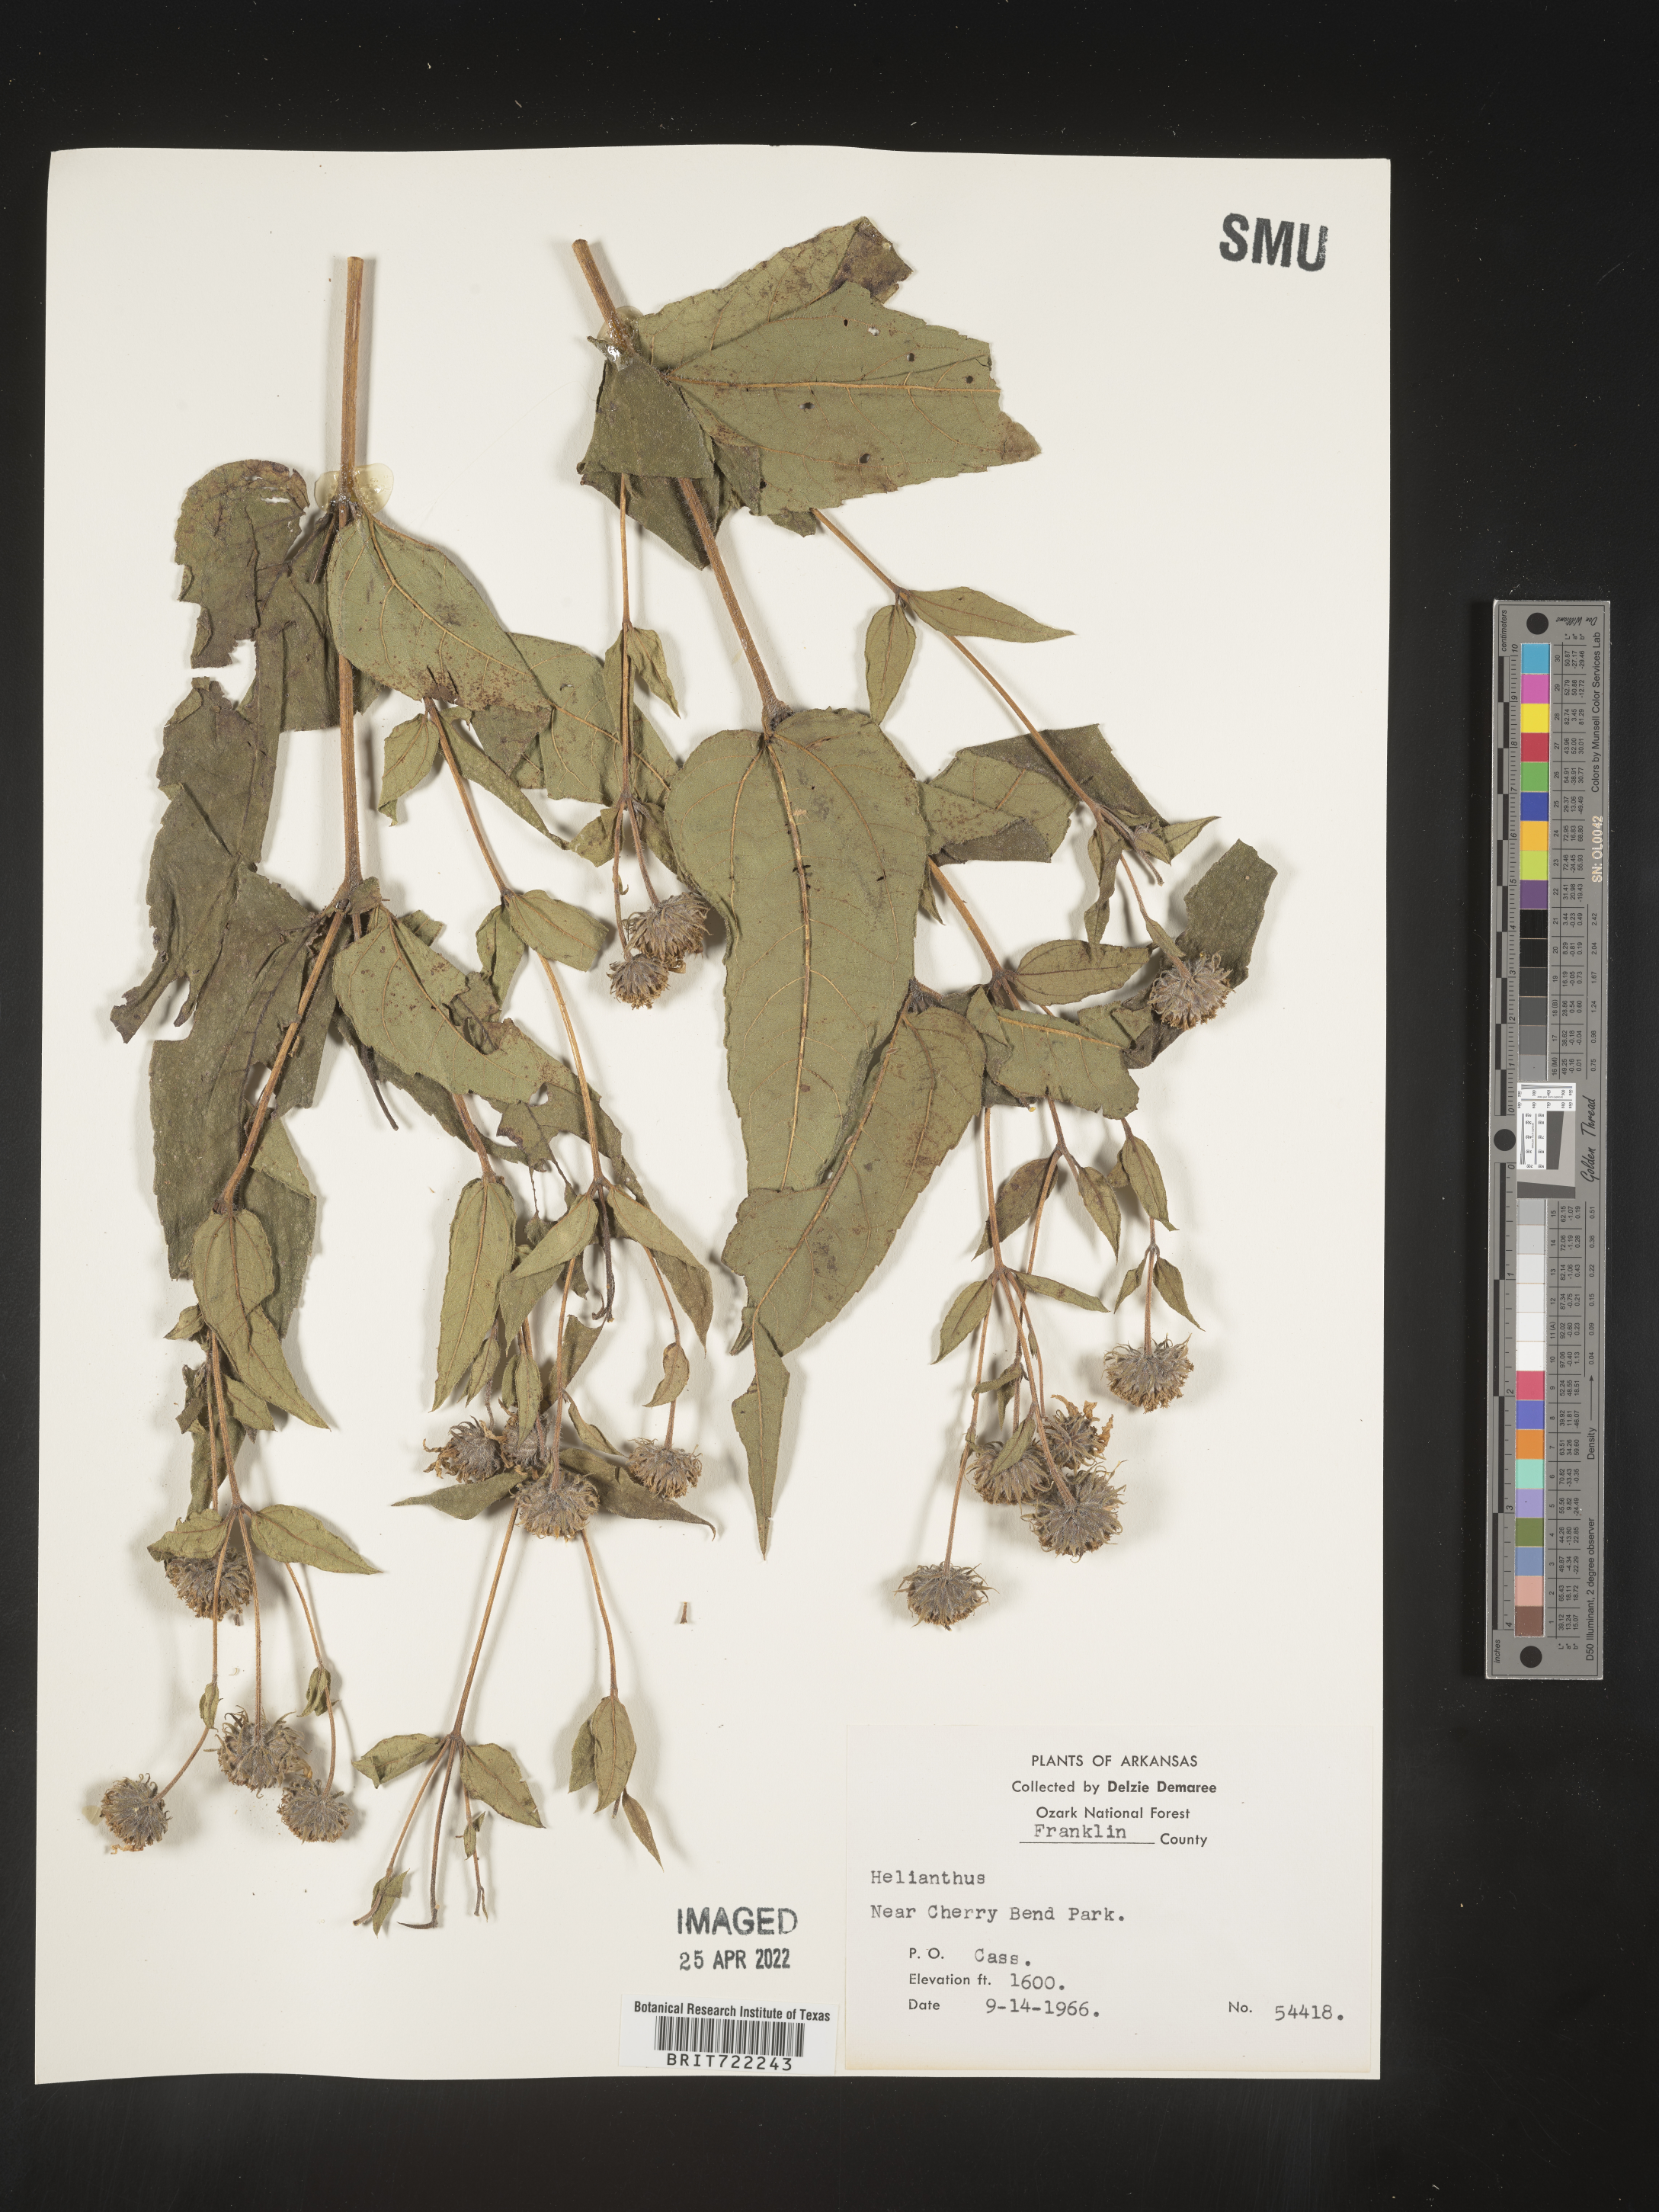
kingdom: Plantae
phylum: Tracheophyta
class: Magnoliopsida
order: Asterales
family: Asteraceae
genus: Helianthus
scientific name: Helianthus hirsutus
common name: Hairy sunflower
